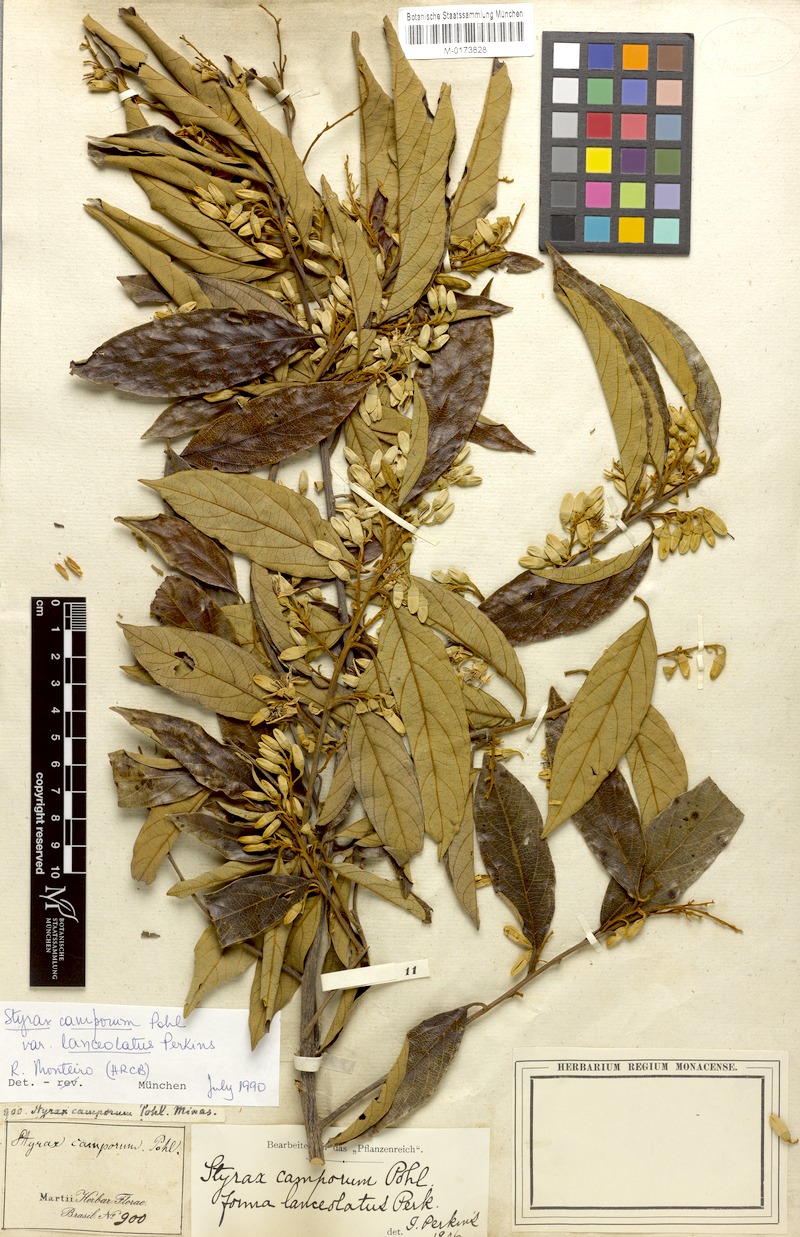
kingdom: Plantae
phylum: Tracheophyta
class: Magnoliopsida
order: Ericales
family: Styracaceae
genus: Styrax
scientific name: Styrax camporum
